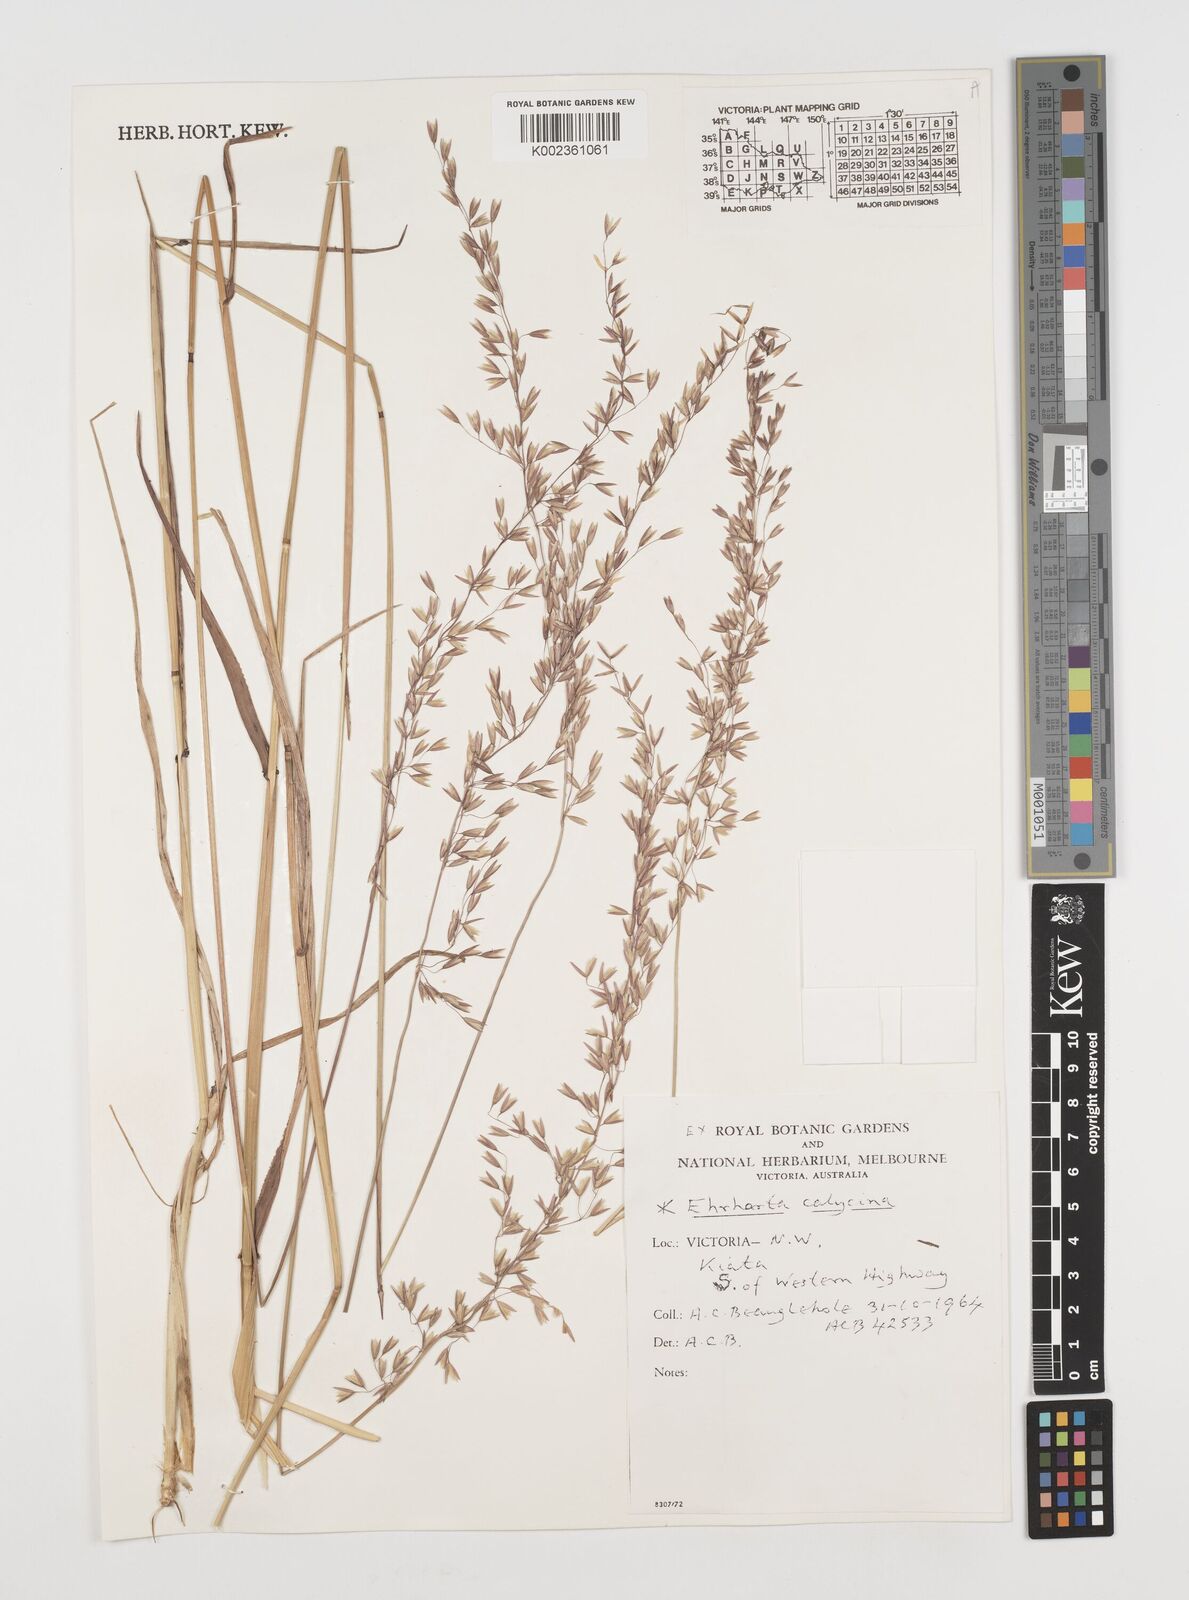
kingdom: Plantae
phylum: Tracheophyta
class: Liliopsida
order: Poales
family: Poaceae
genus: Ehrharta
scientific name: Ehrharta calycina
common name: Perennial veldtgrass
